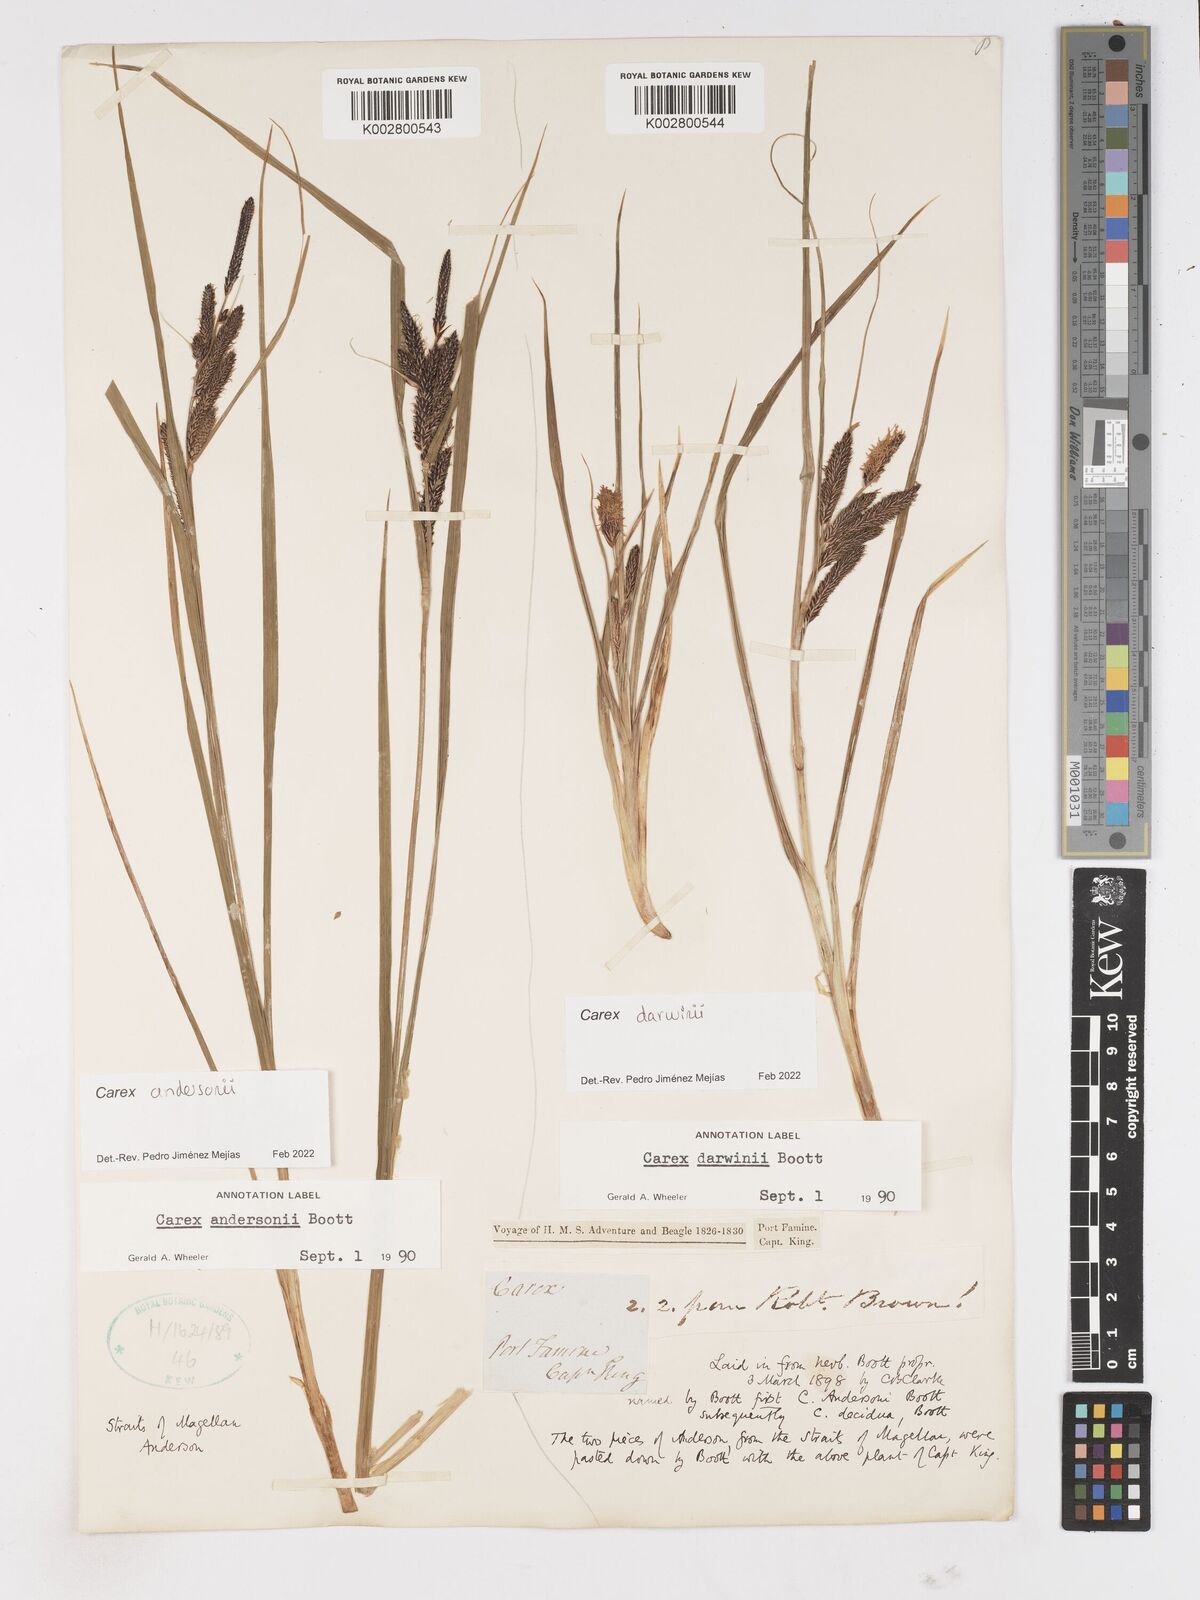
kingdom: Plantae
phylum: Tracheophyta
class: Liliopsida
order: Poales
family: Cyperaceae
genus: Carex
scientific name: Carex
